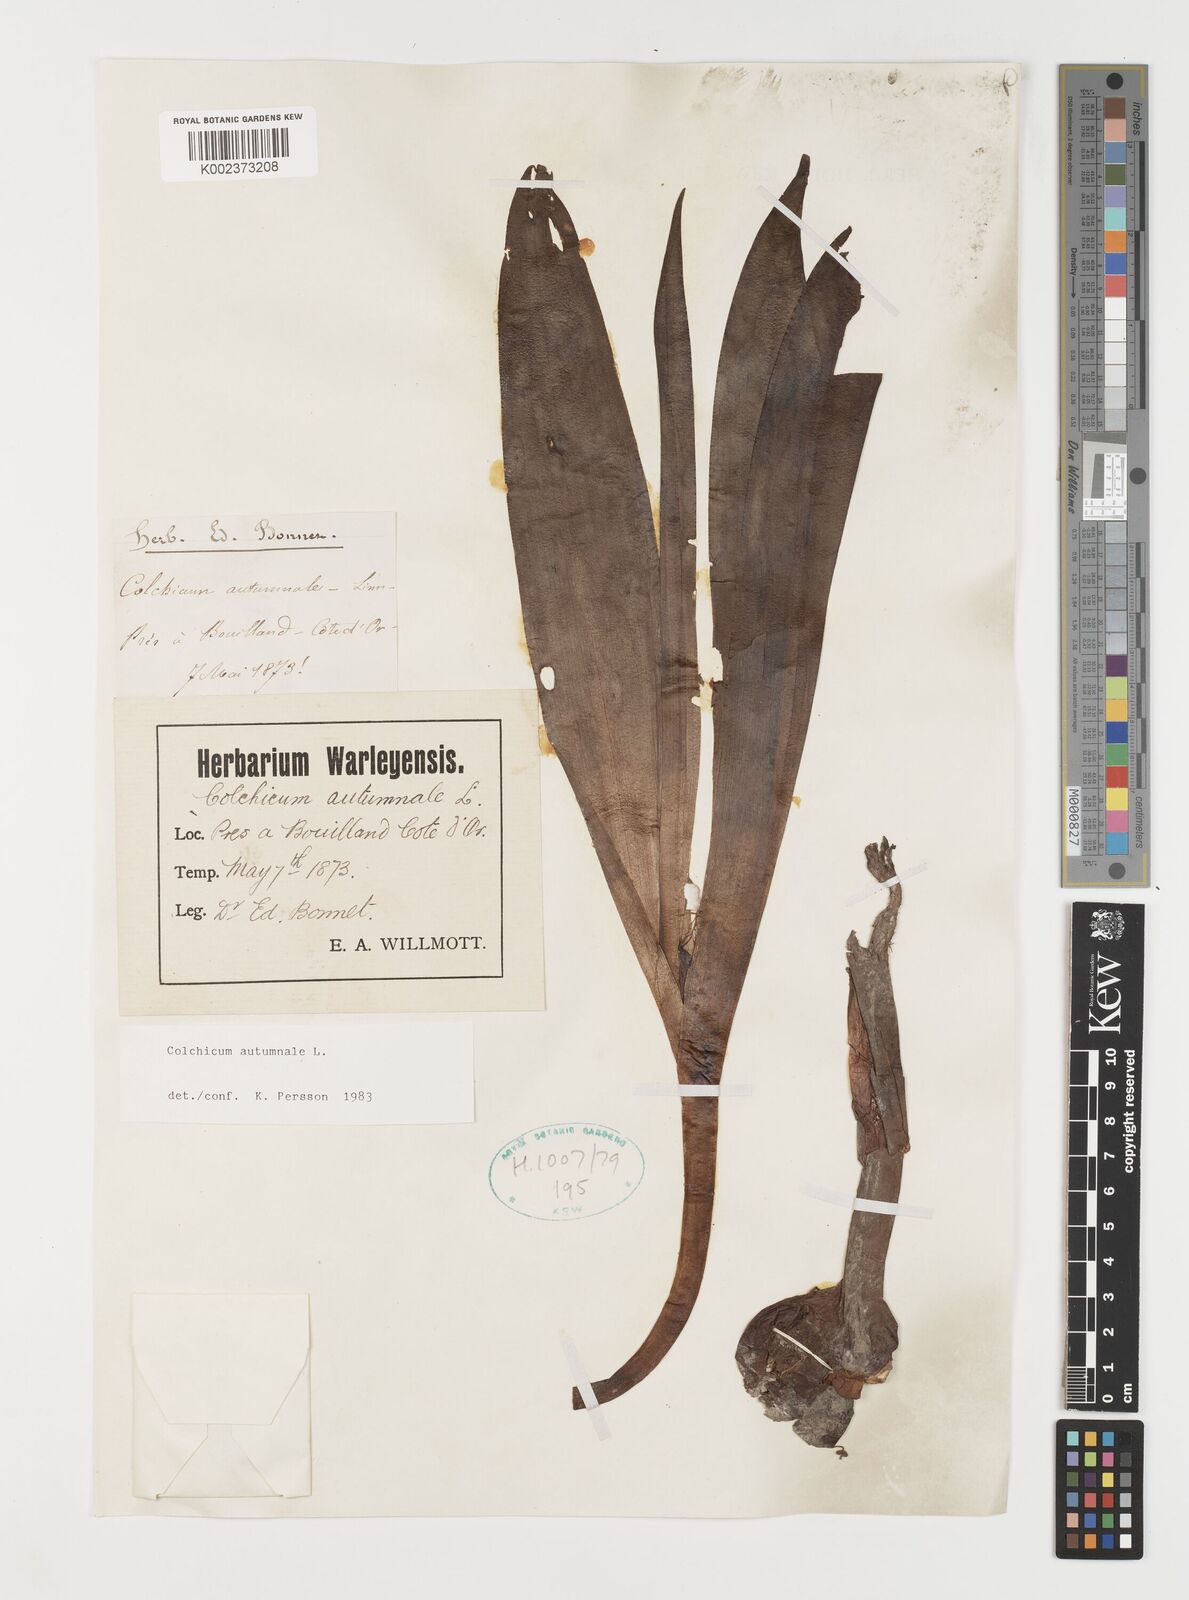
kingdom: Plantae
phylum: Tracheophyta
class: Liliopsida
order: Liliales
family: Colchicaceae
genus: Colchicum
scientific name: Colchicum autumnale
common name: Autumn crocus
